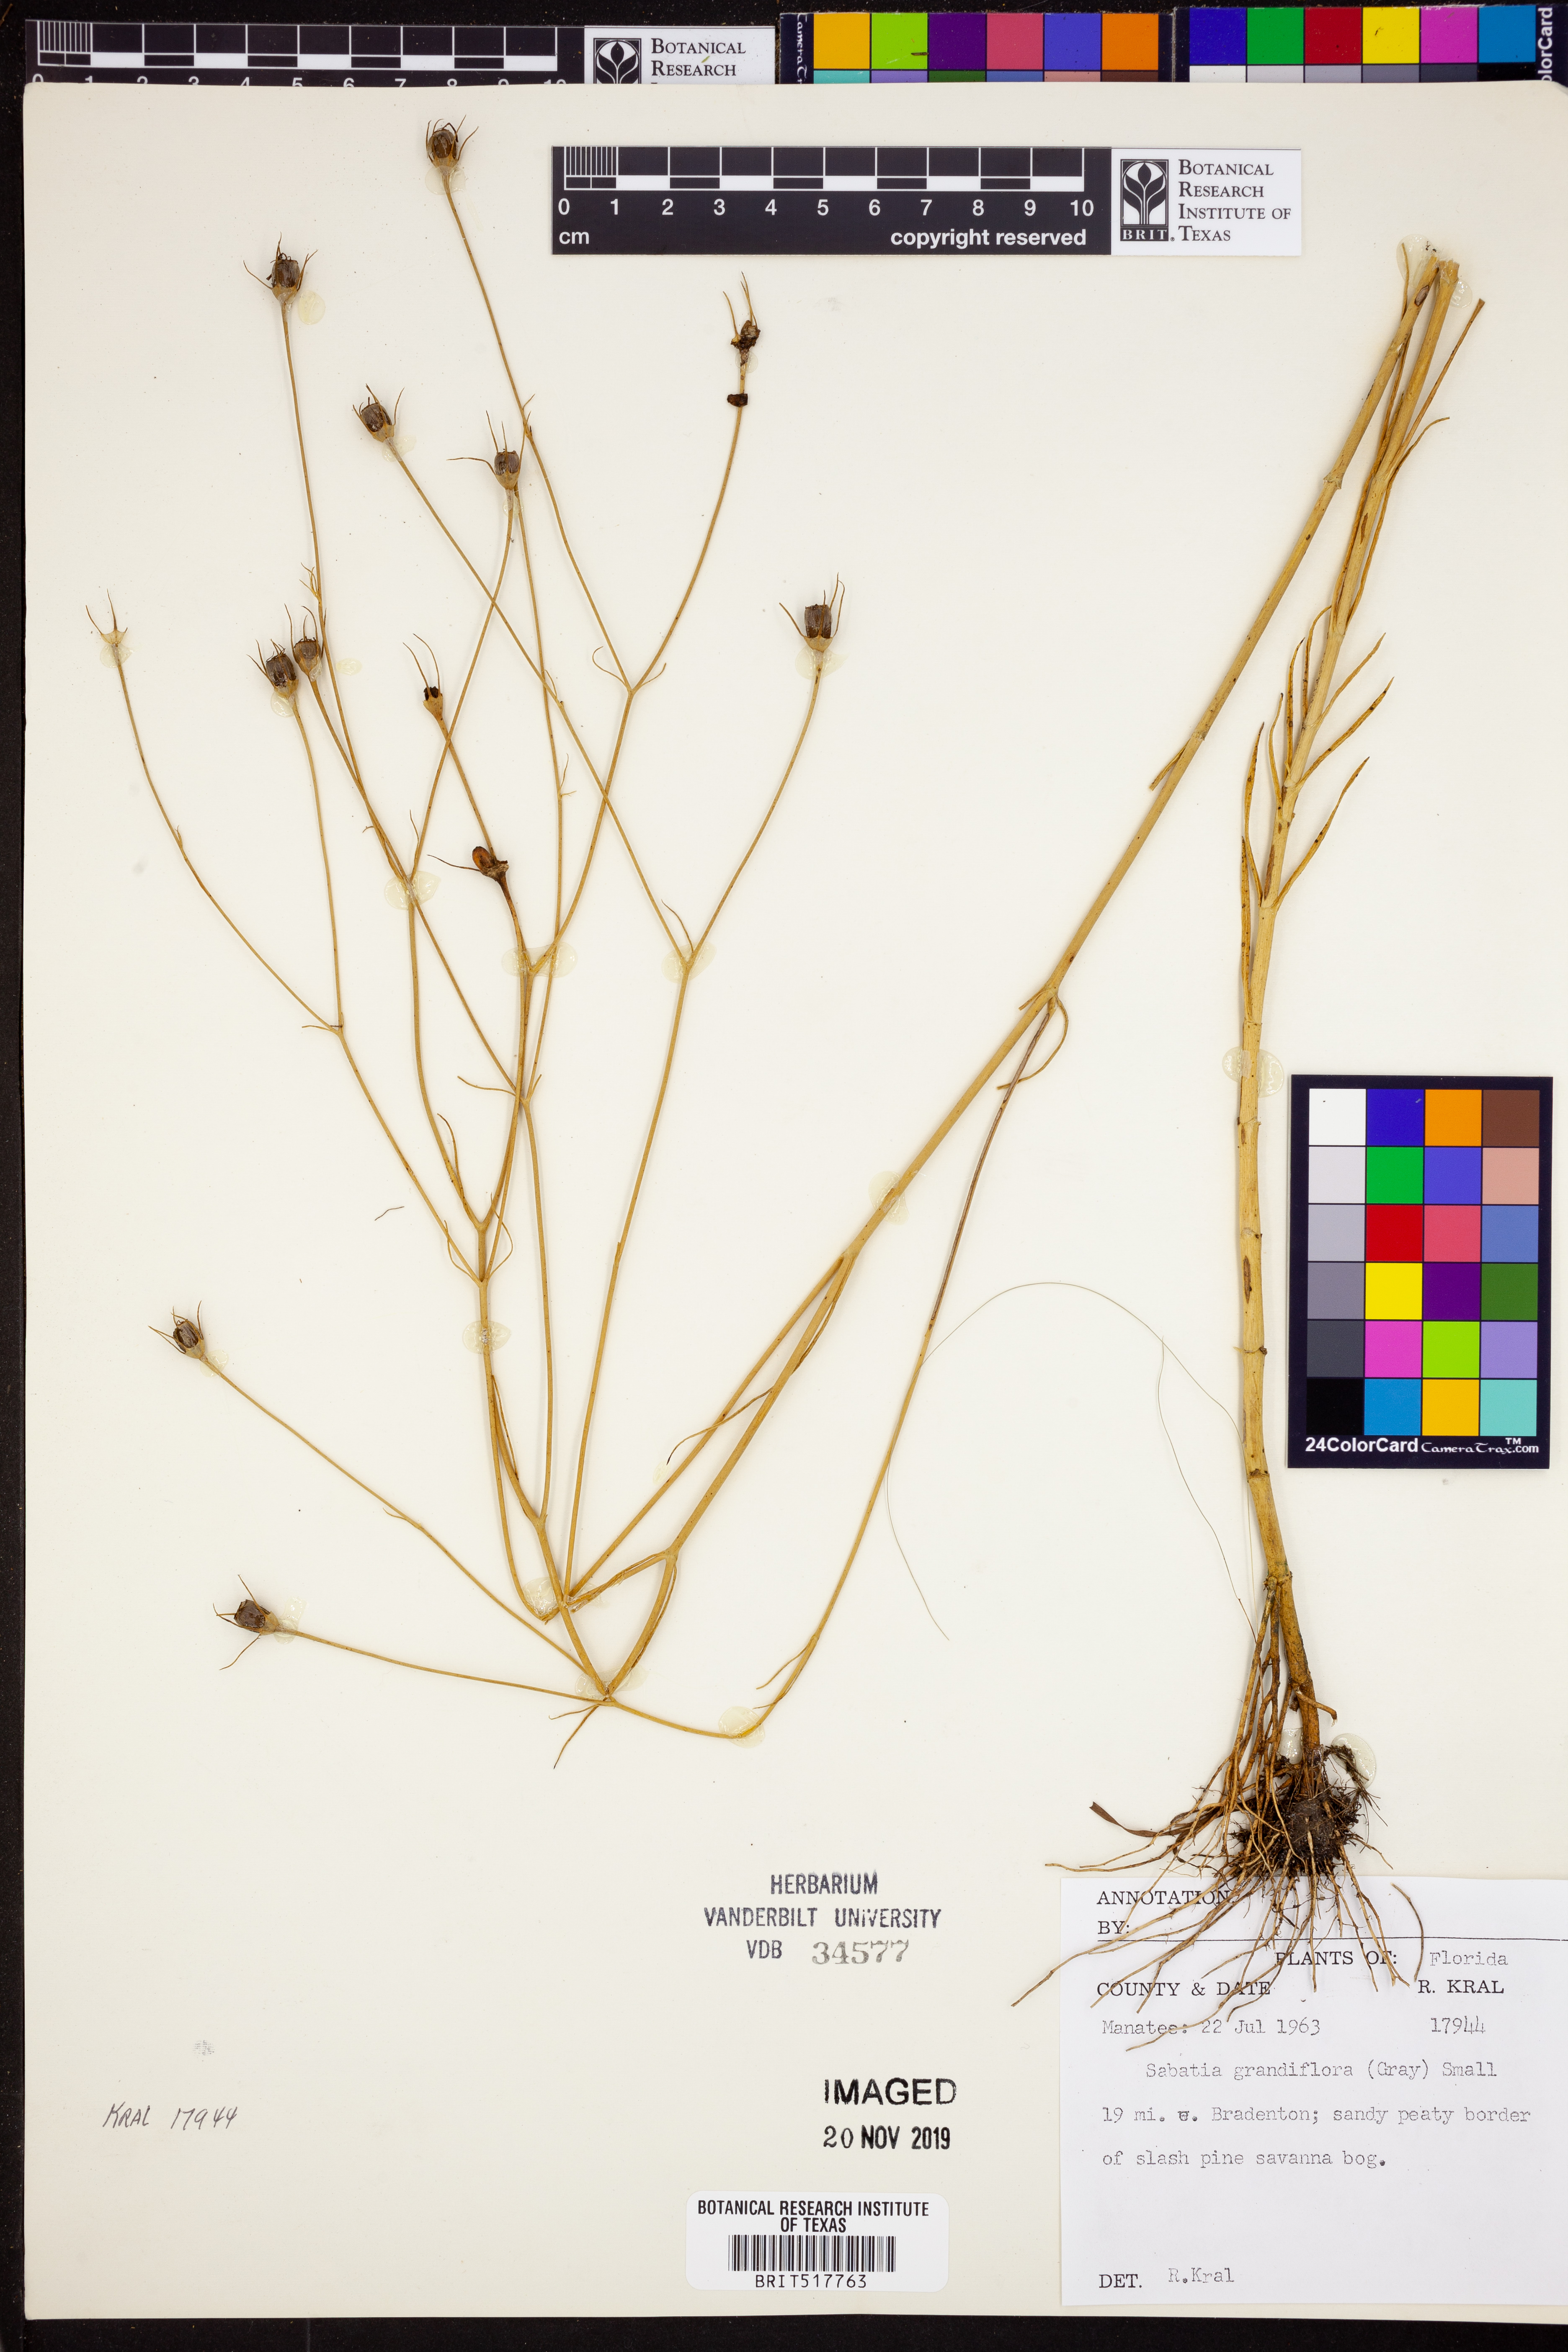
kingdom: Plantae
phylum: Tracheophyta
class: Magnoliopsida
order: Gentianales
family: Gentianaceae
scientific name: Gentianaceae
